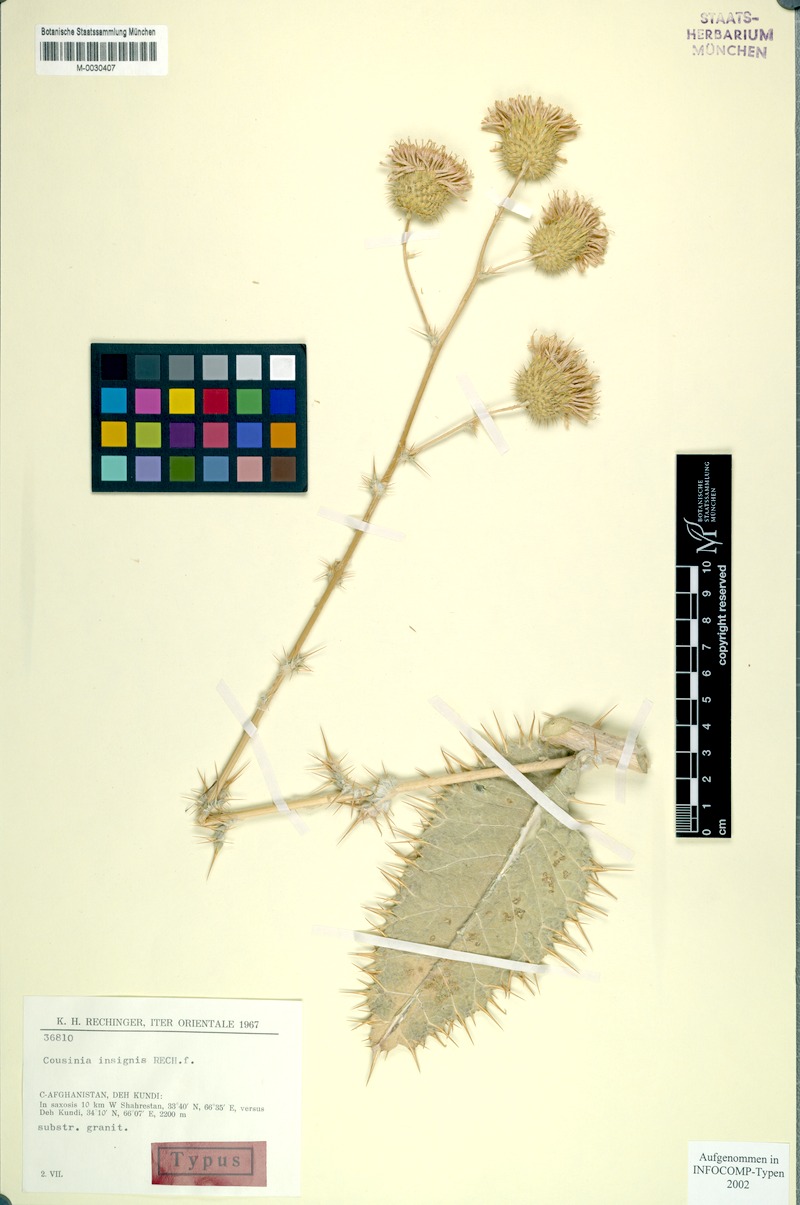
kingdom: Plantae
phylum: Tracheophyta
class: Magnoliopsida
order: Asterales
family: Asteraceae
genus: Cousinia
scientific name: Cousinia insignis
